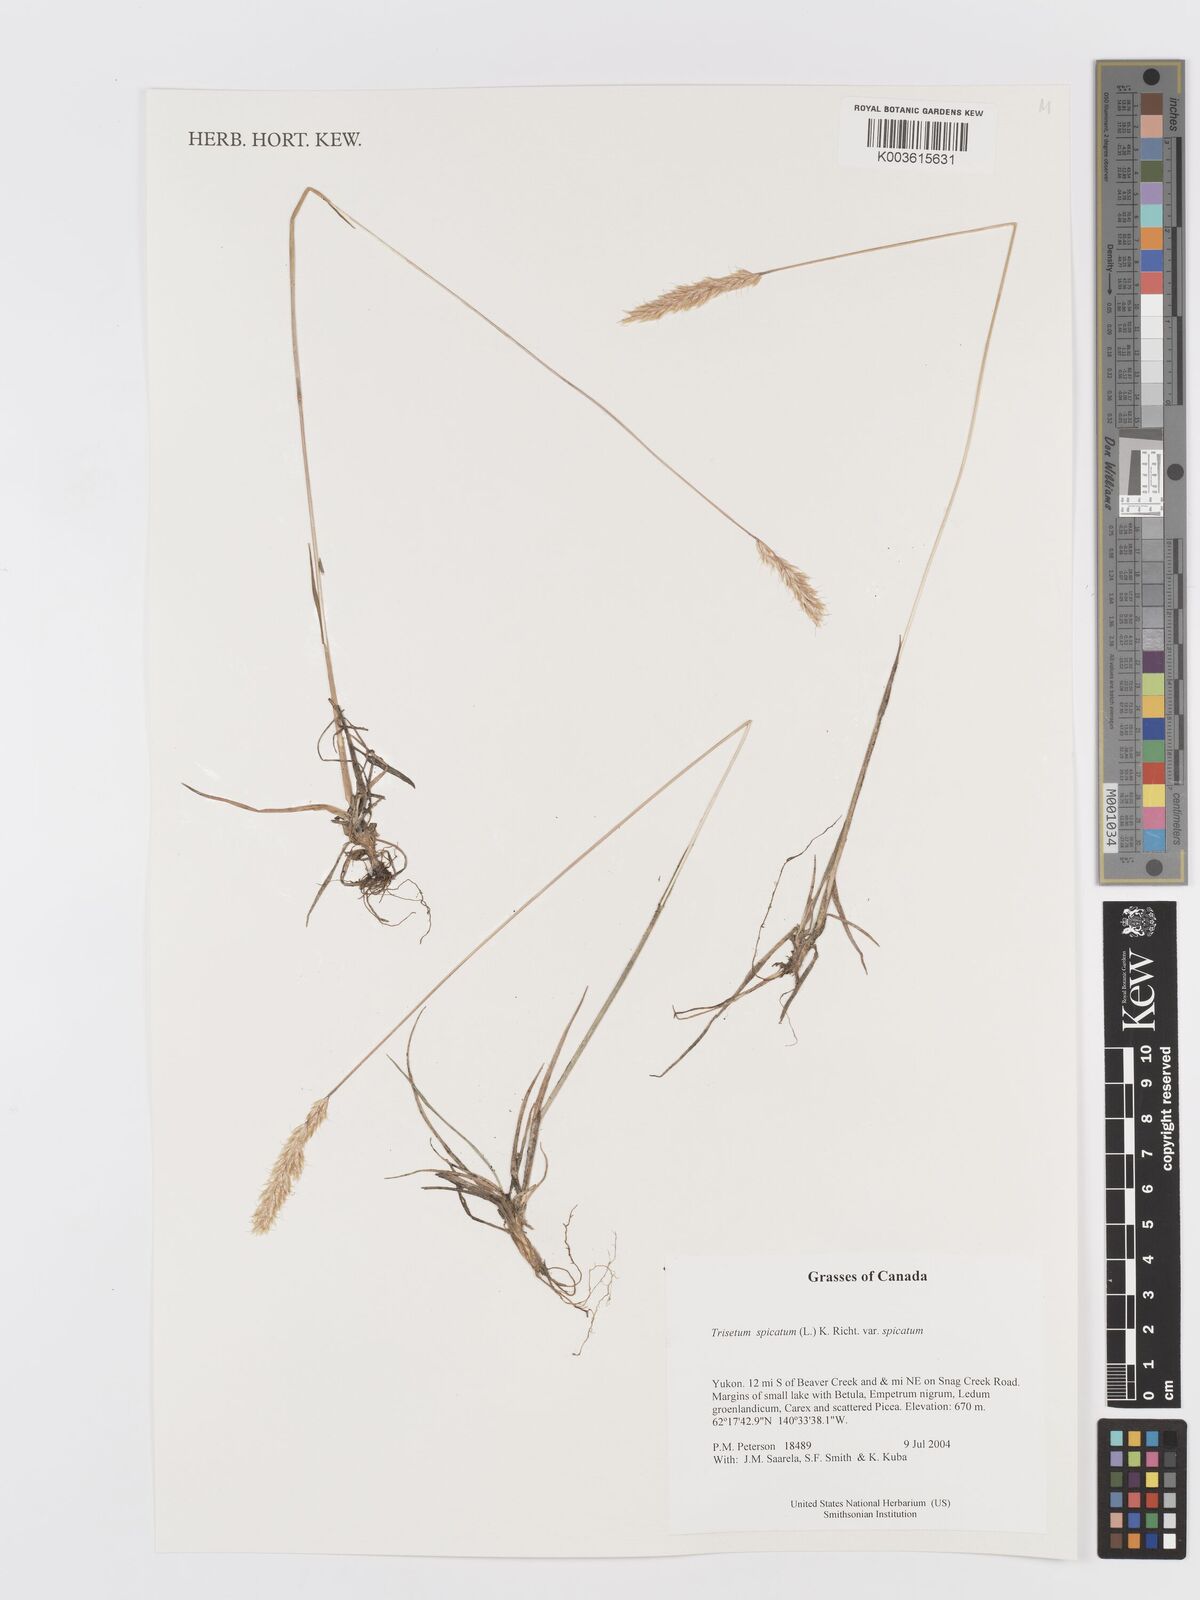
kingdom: Plantae
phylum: Tracheophyta
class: Liliopsida
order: Poales
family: Poaceae
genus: Koeleria
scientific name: Koeleria spicata
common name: Mountain trisetum
